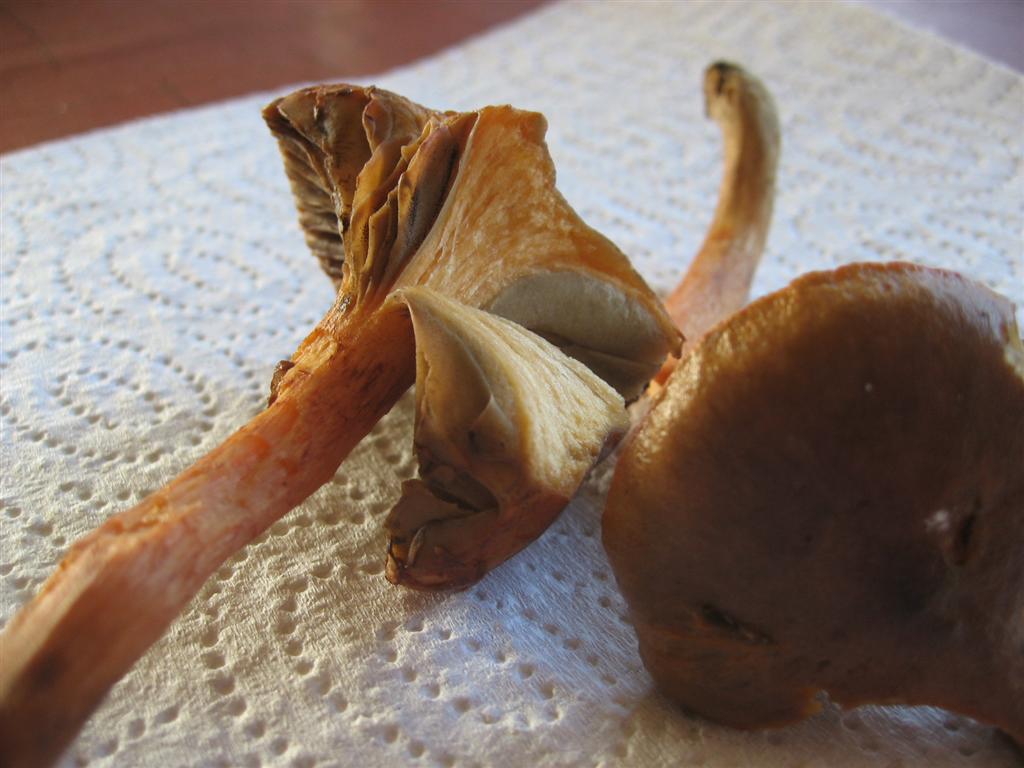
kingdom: Fungi
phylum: Basidiomycota
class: Agaricomycetes
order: Boletales
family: Gomphidiaceae
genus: Chroogomphus
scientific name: Chroogomphus rutilus
